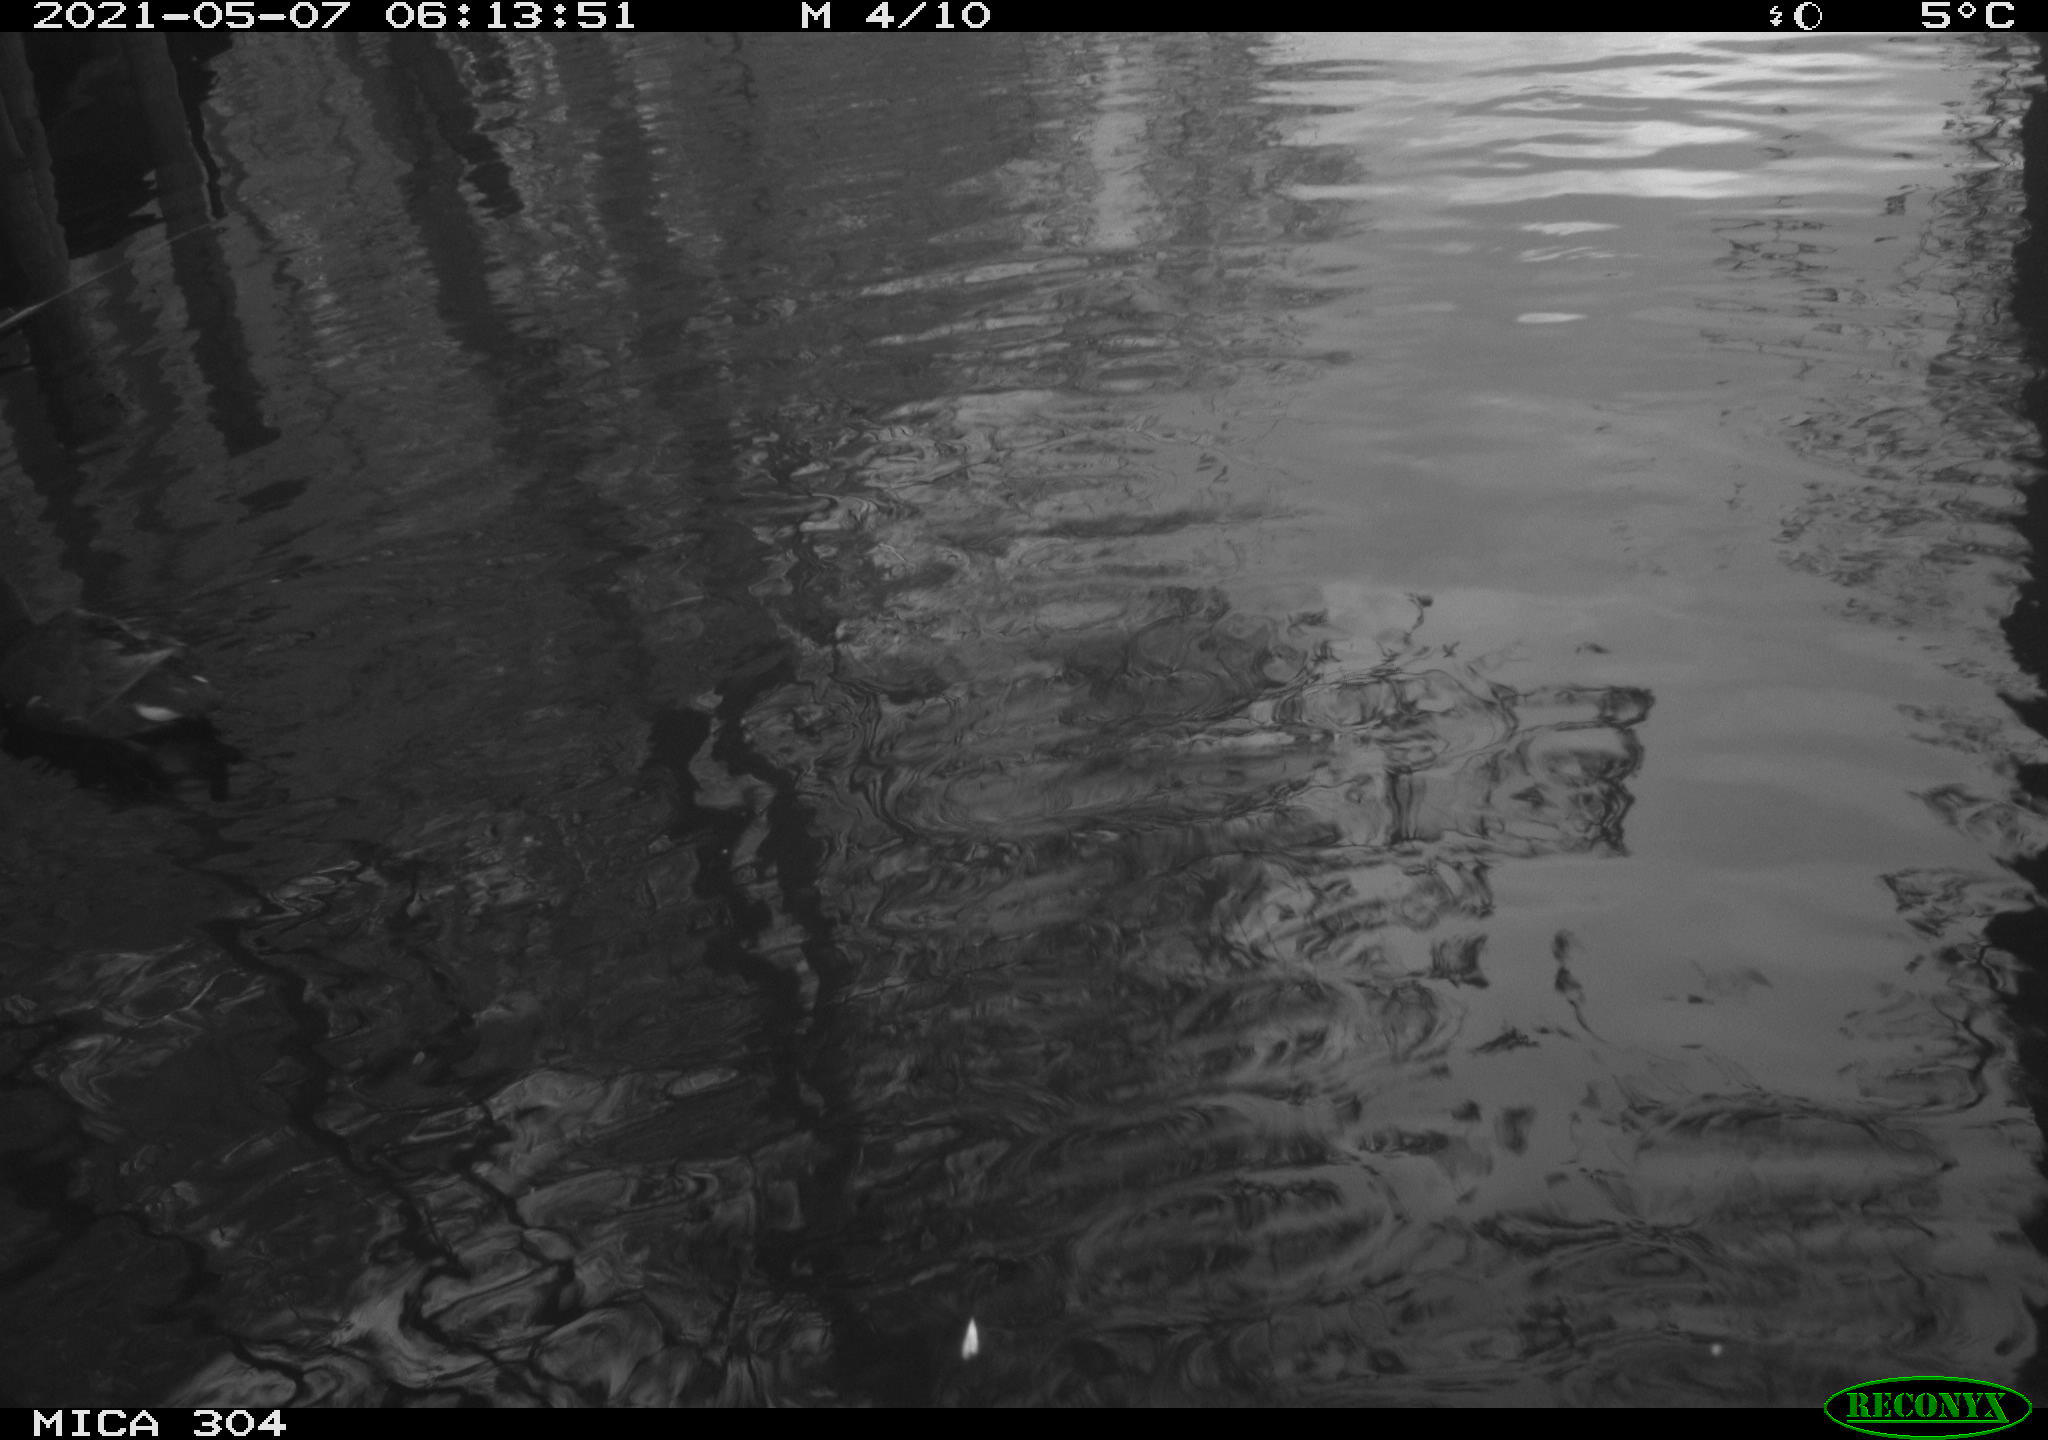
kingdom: Animalia
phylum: Chordata
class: Aves
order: Gruiformes
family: Rallidae
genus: Gallinula
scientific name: Gallinula chloropus
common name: Common moorhen
